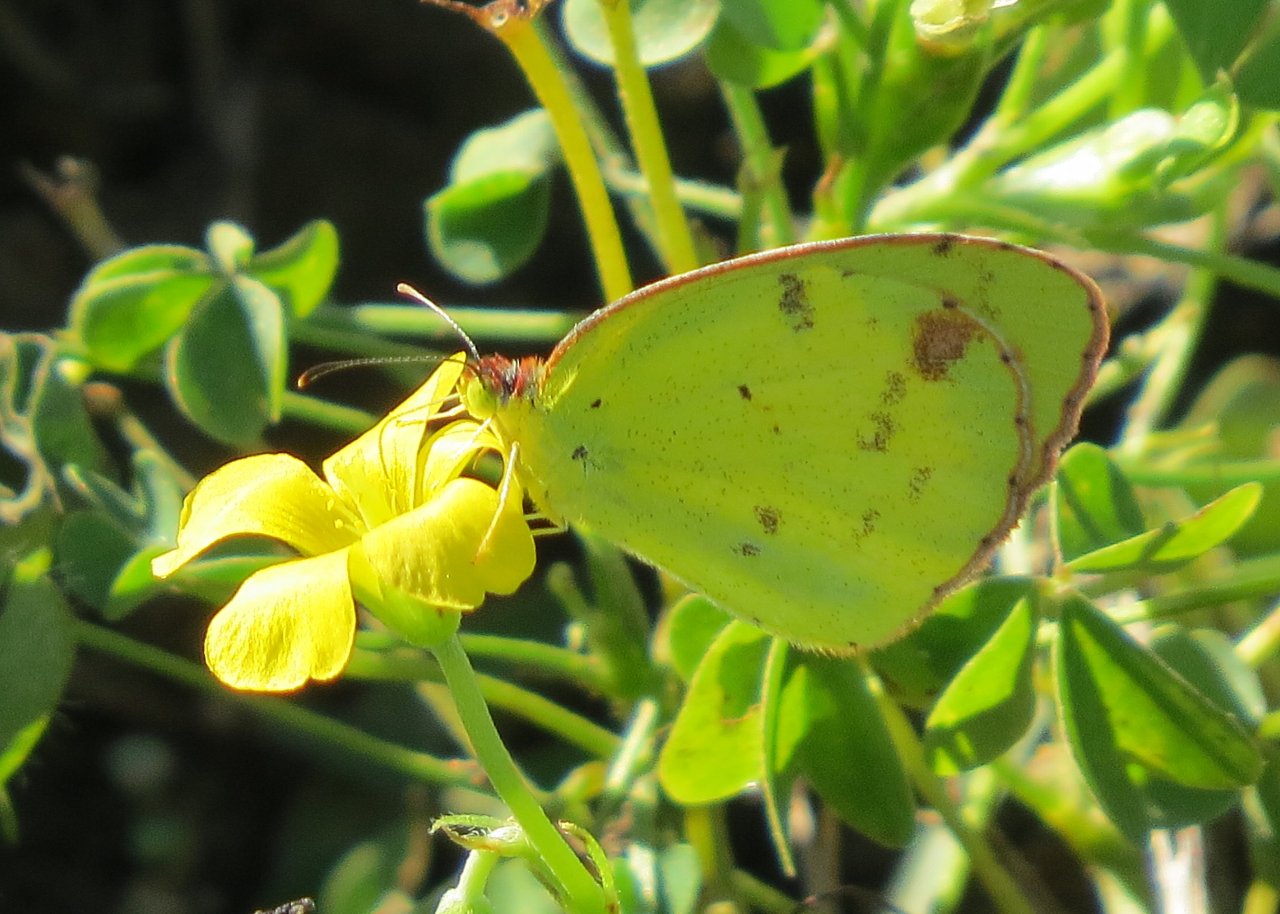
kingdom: Animalia
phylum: Arthropoda
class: Insecta
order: Lepidoptera
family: Pieridae
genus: Pyrisitia
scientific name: Pyrisitia lisa
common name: Little Yellow
